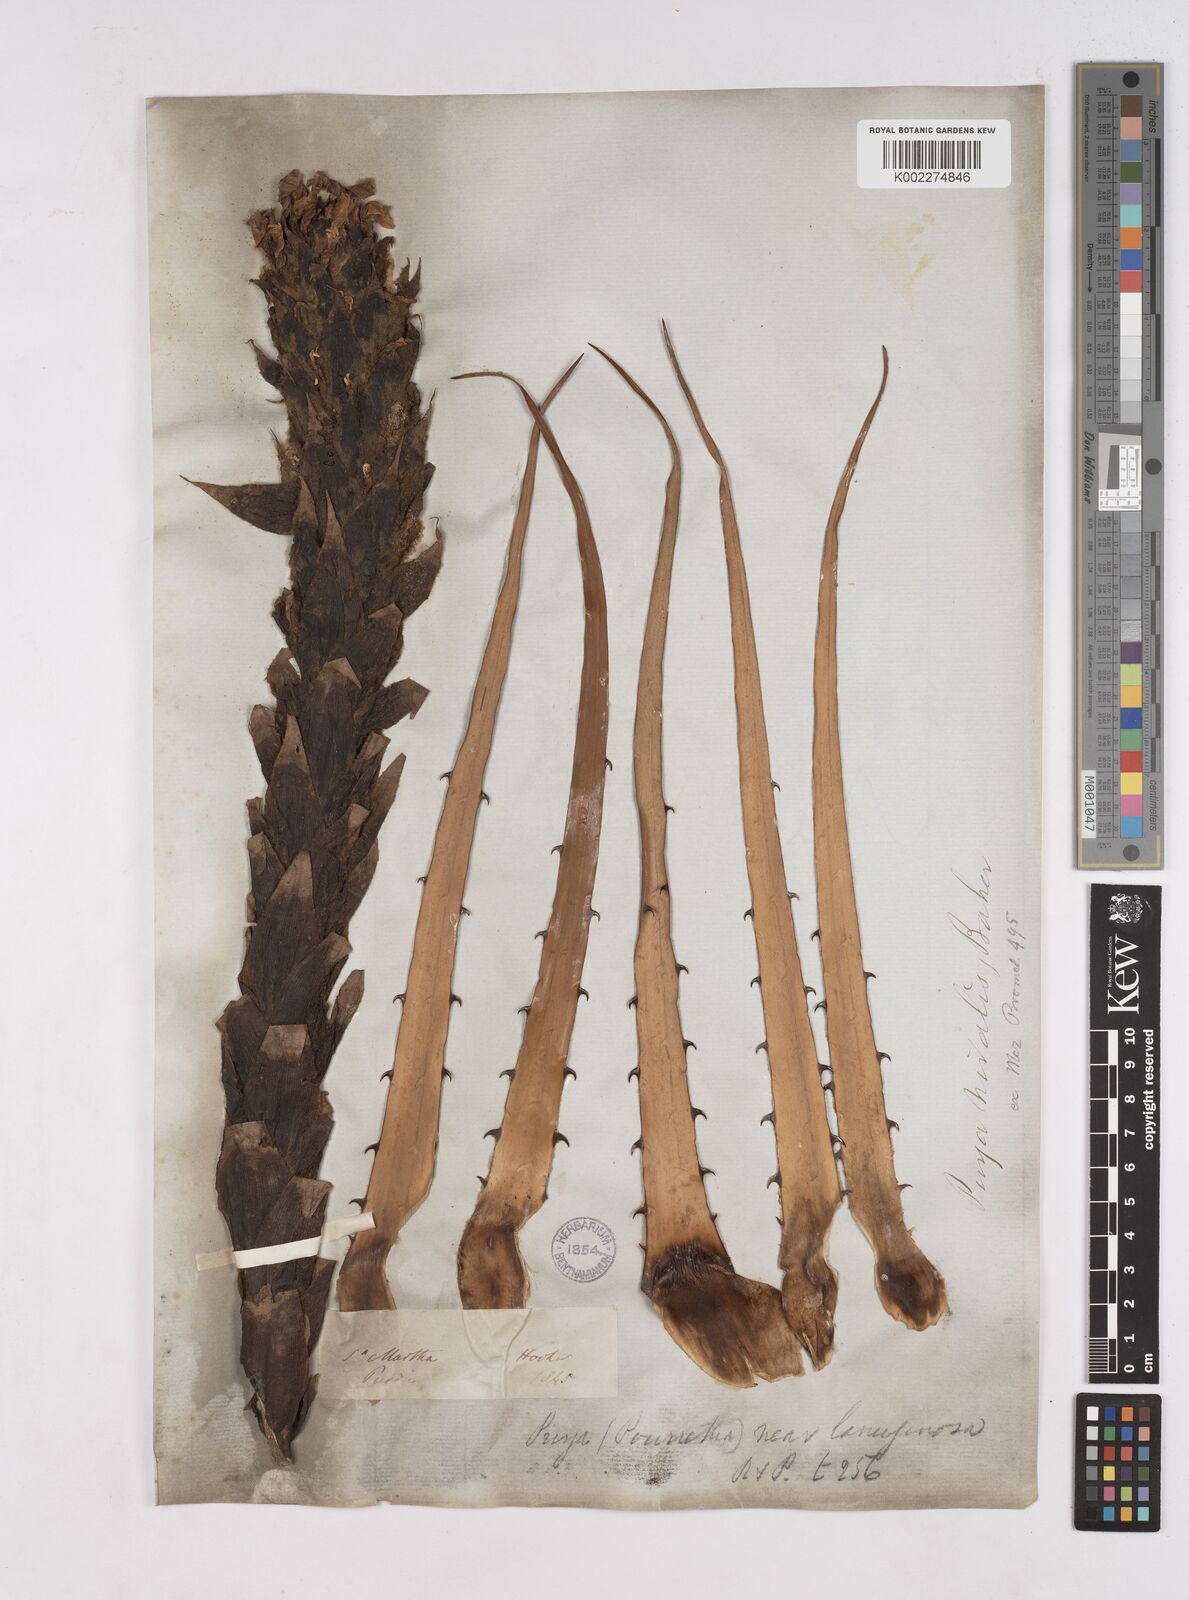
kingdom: Plantae
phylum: Tracheophyta
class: Liliopsida
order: Poales
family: Bromeliaceae
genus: Puya
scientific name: Puya nivalis
